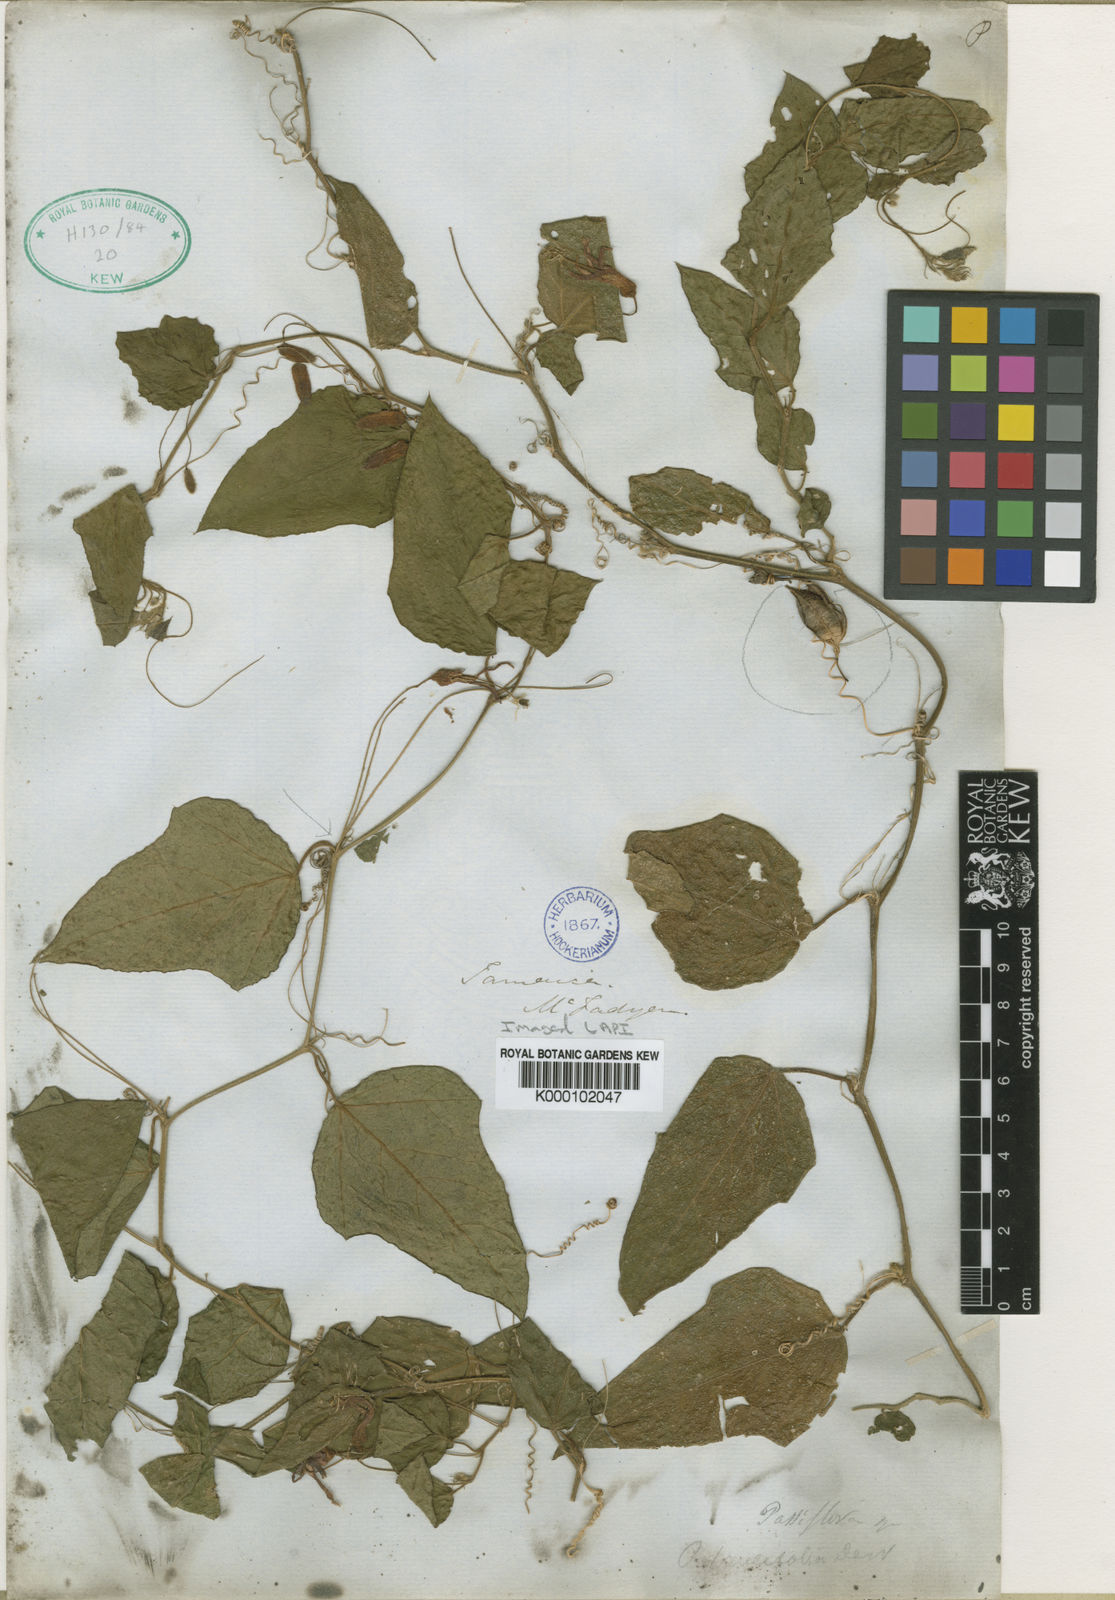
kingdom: Plantae
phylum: Tracheophyta
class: Magnoliopsida
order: Malpighiales
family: Passifloraceae
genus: Passiflora
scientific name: Passiflora
